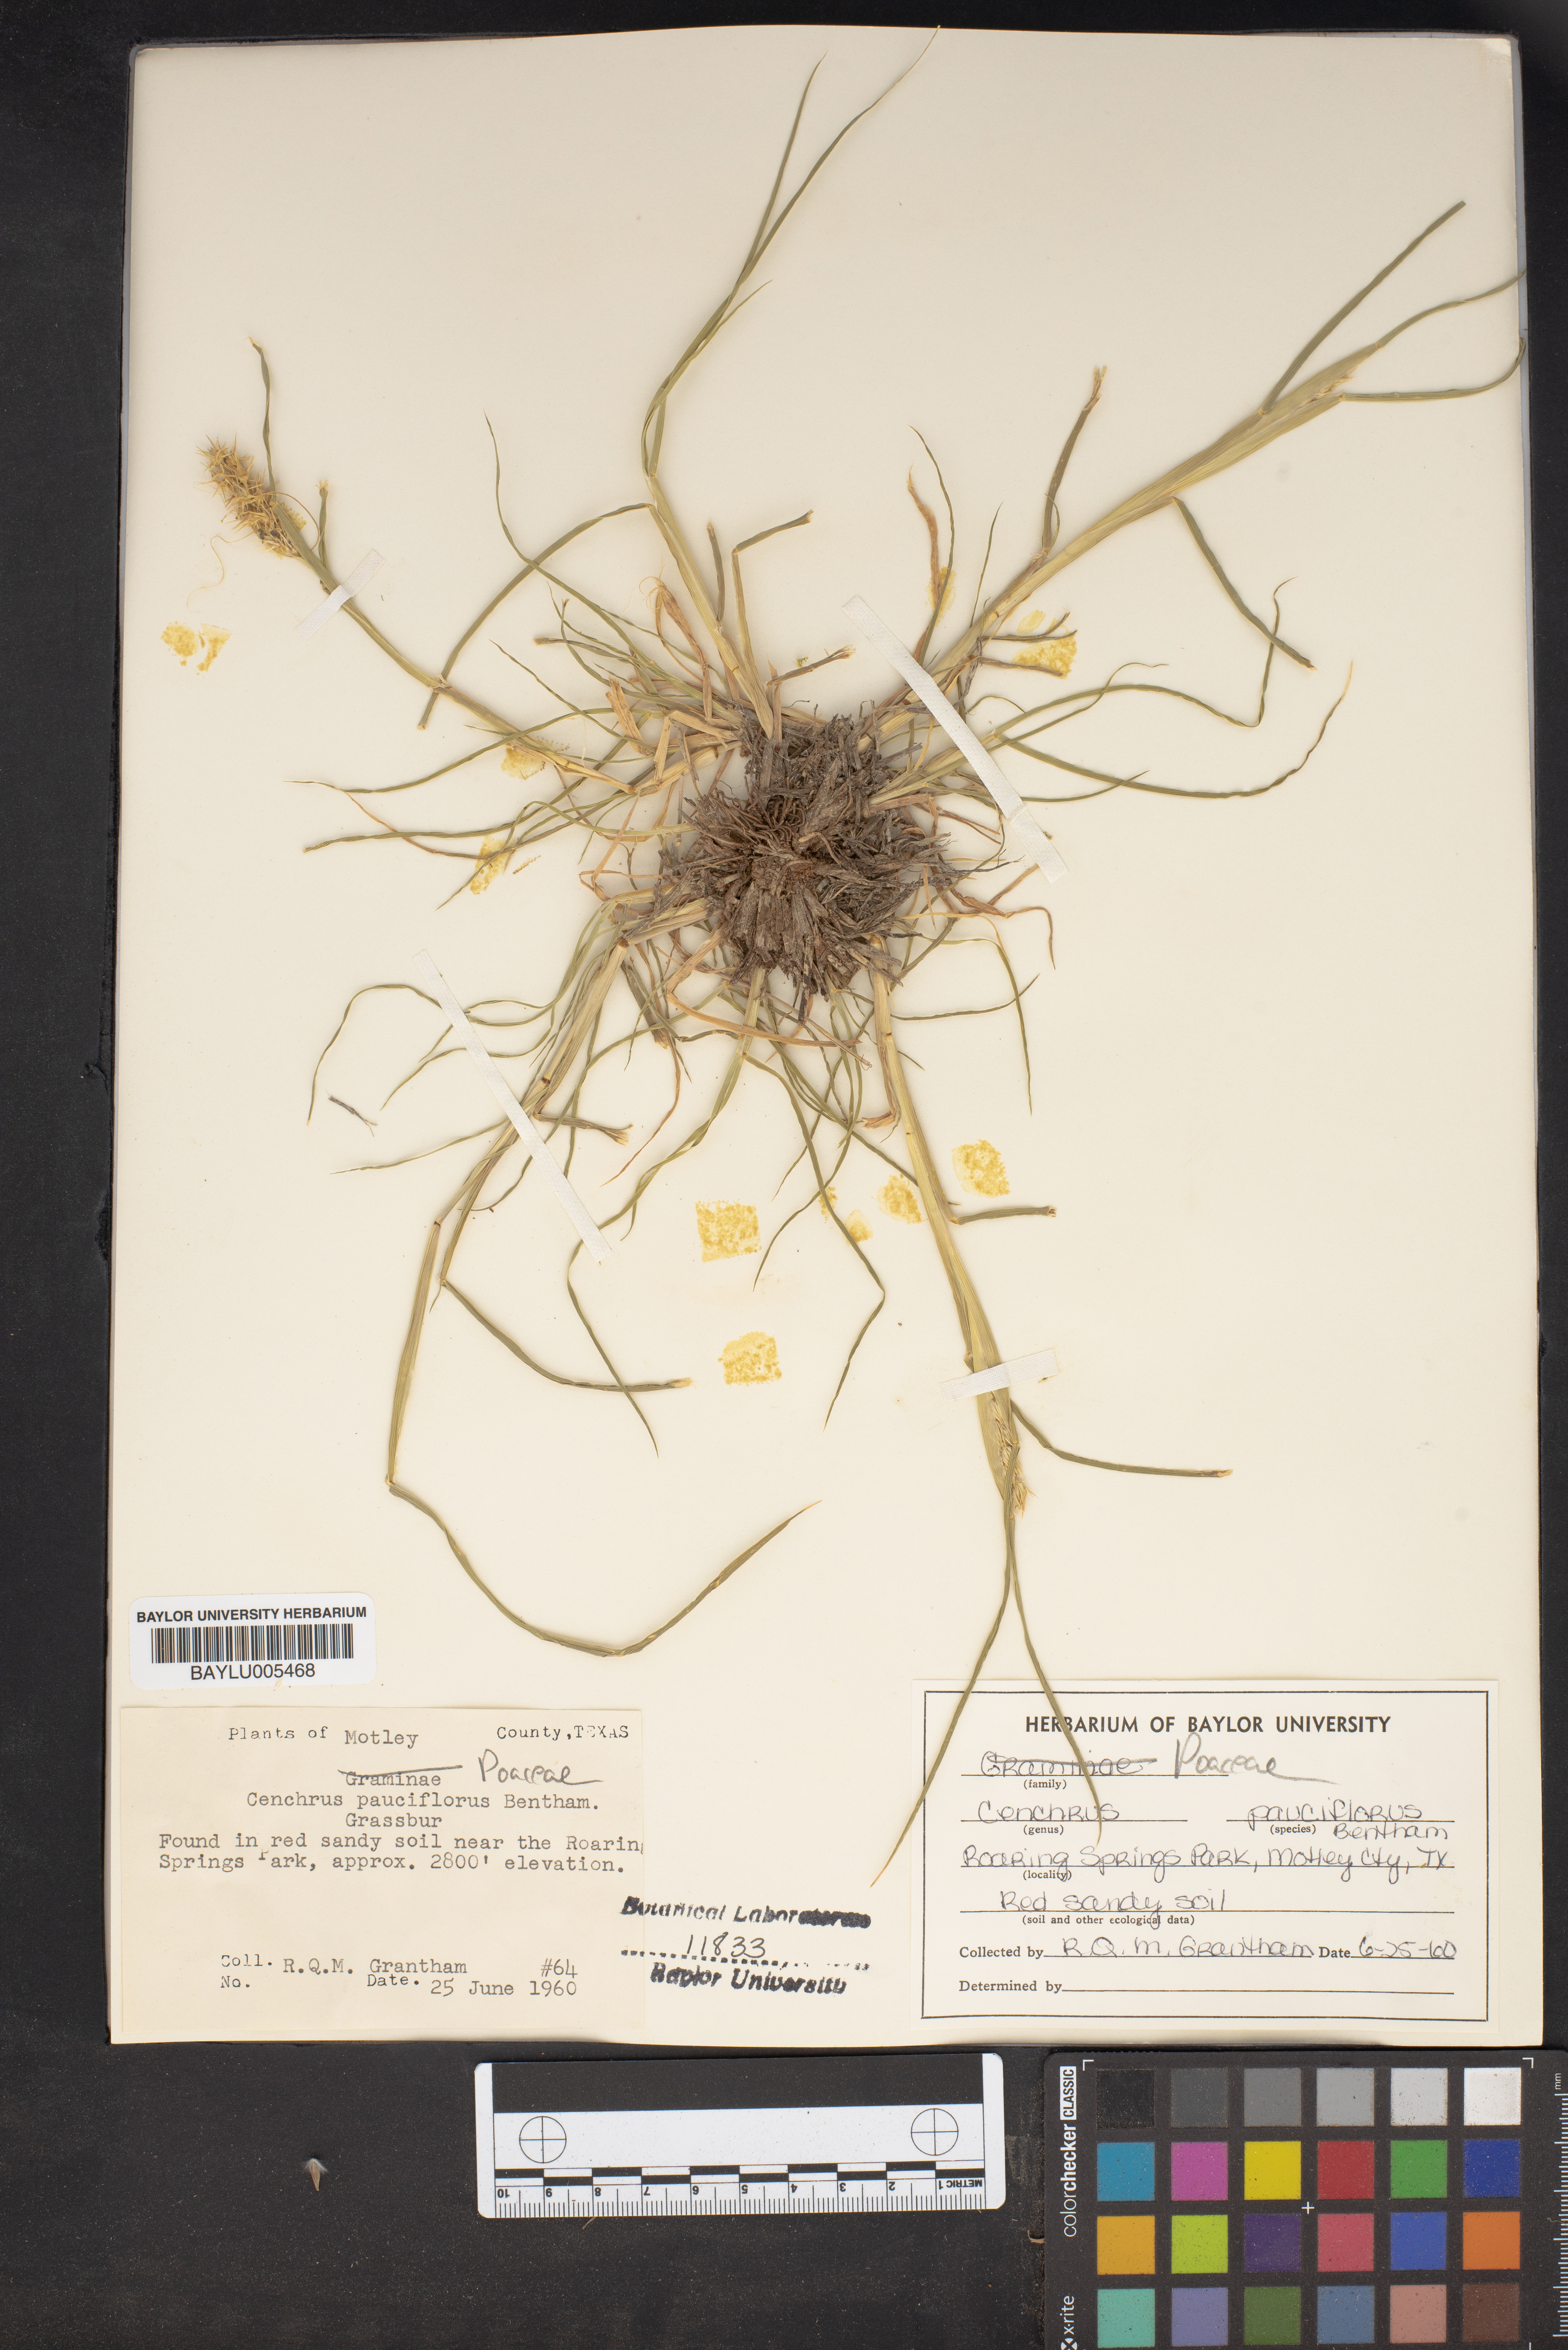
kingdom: Plantae
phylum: Tracheophyta
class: Liliopsida
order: Poales
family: Poaceae
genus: Cenchrus
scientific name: Cenchrus spinifex
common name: Coast sandbur
